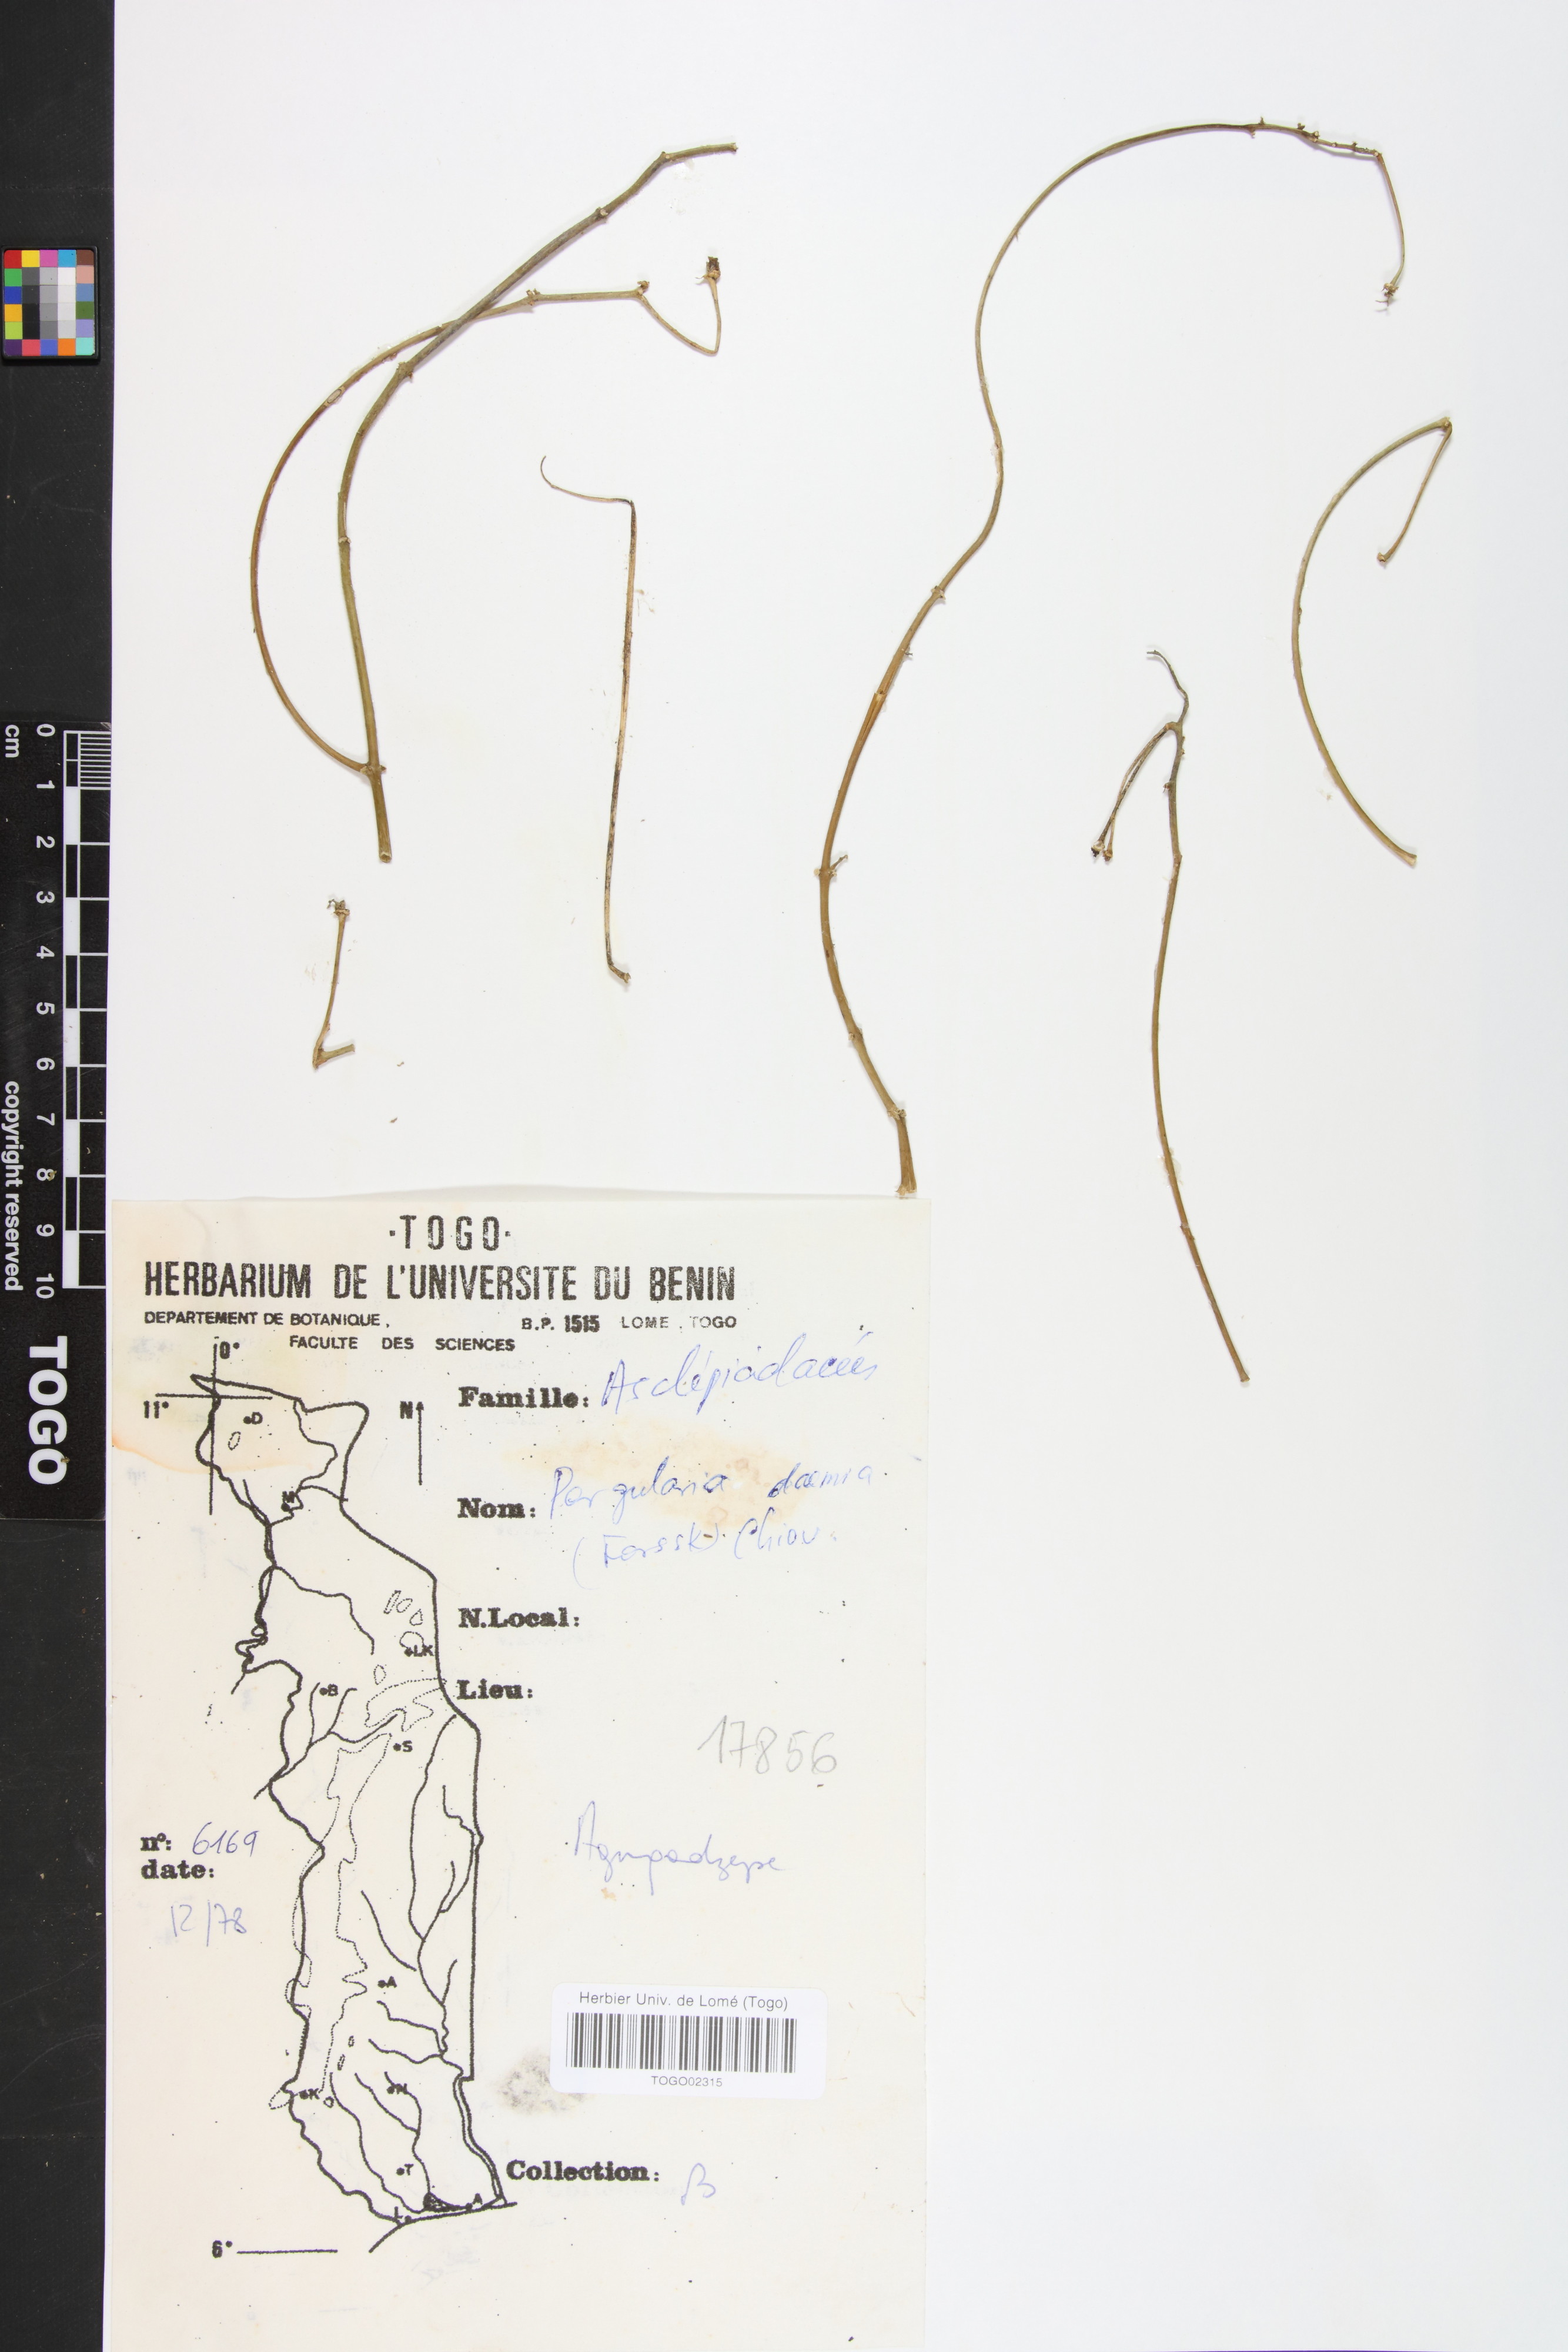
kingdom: Plantae
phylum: Tracheophyta
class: Magnoliopsida
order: Gentianales
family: Apocynaceae
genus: Pergularia
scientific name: Pergularia daemia
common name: Trellis-vine
